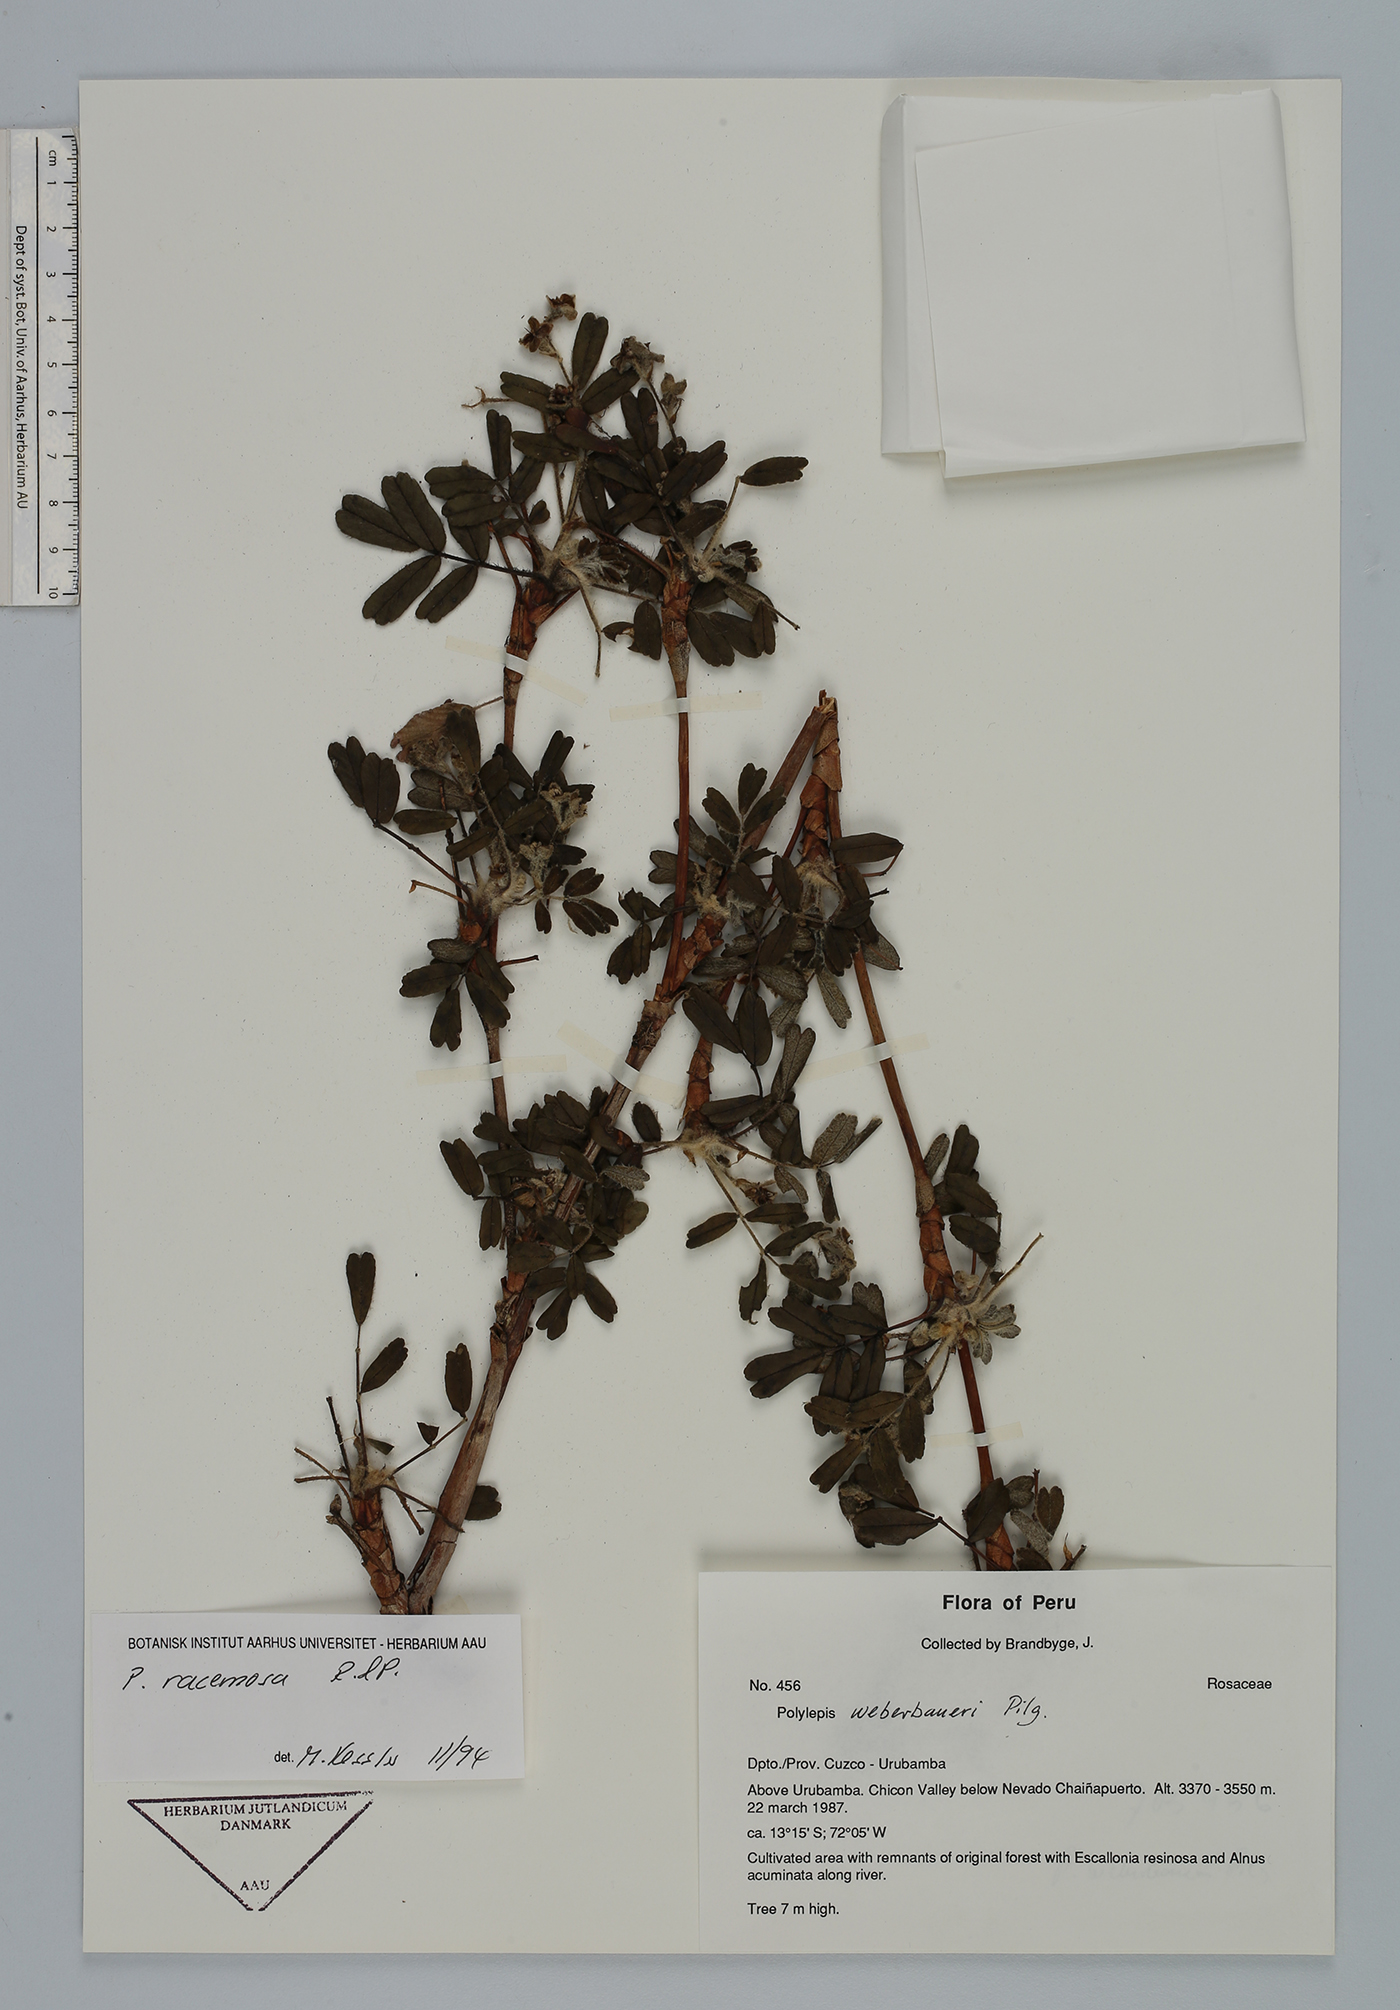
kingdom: Plantae
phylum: Tracheophyta
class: Magnoliopsida
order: Rosales
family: Rosaceae
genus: Polylepis
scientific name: Polylepis lanata
